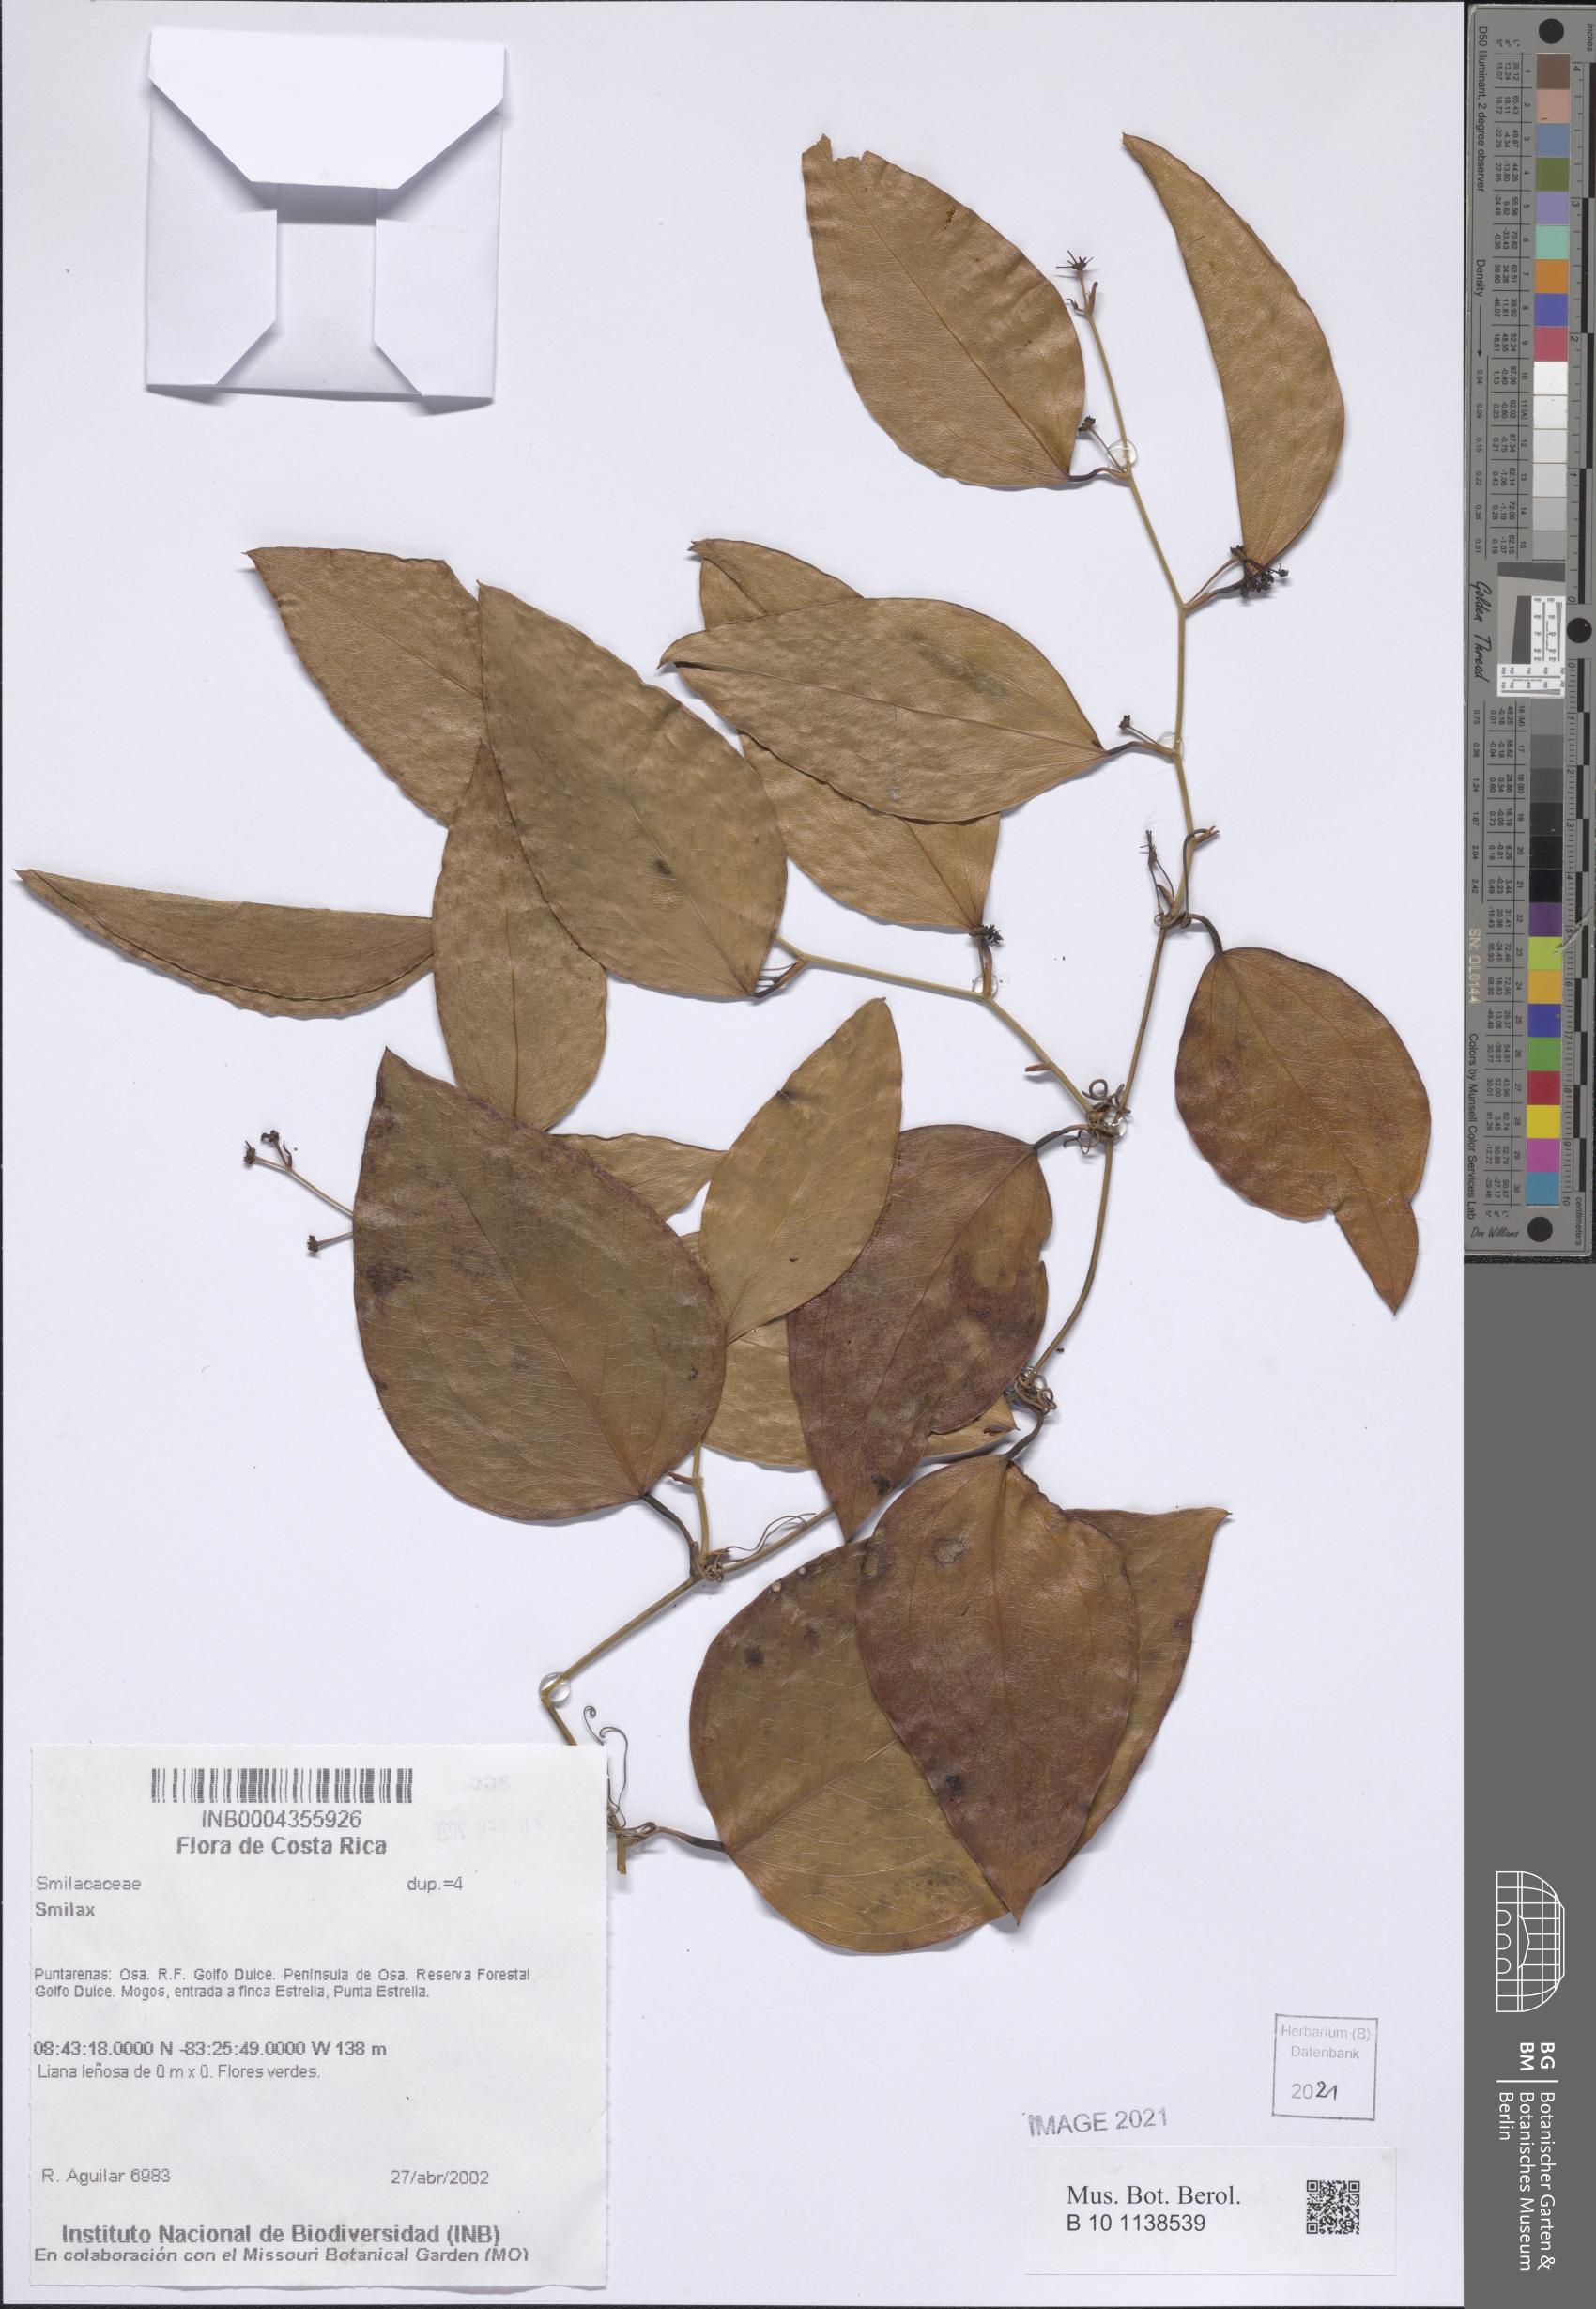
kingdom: Plantae
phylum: Tracheophyta
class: Liliopsida
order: Liliales
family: Smilacaceae
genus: Smilax
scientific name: Smilax
